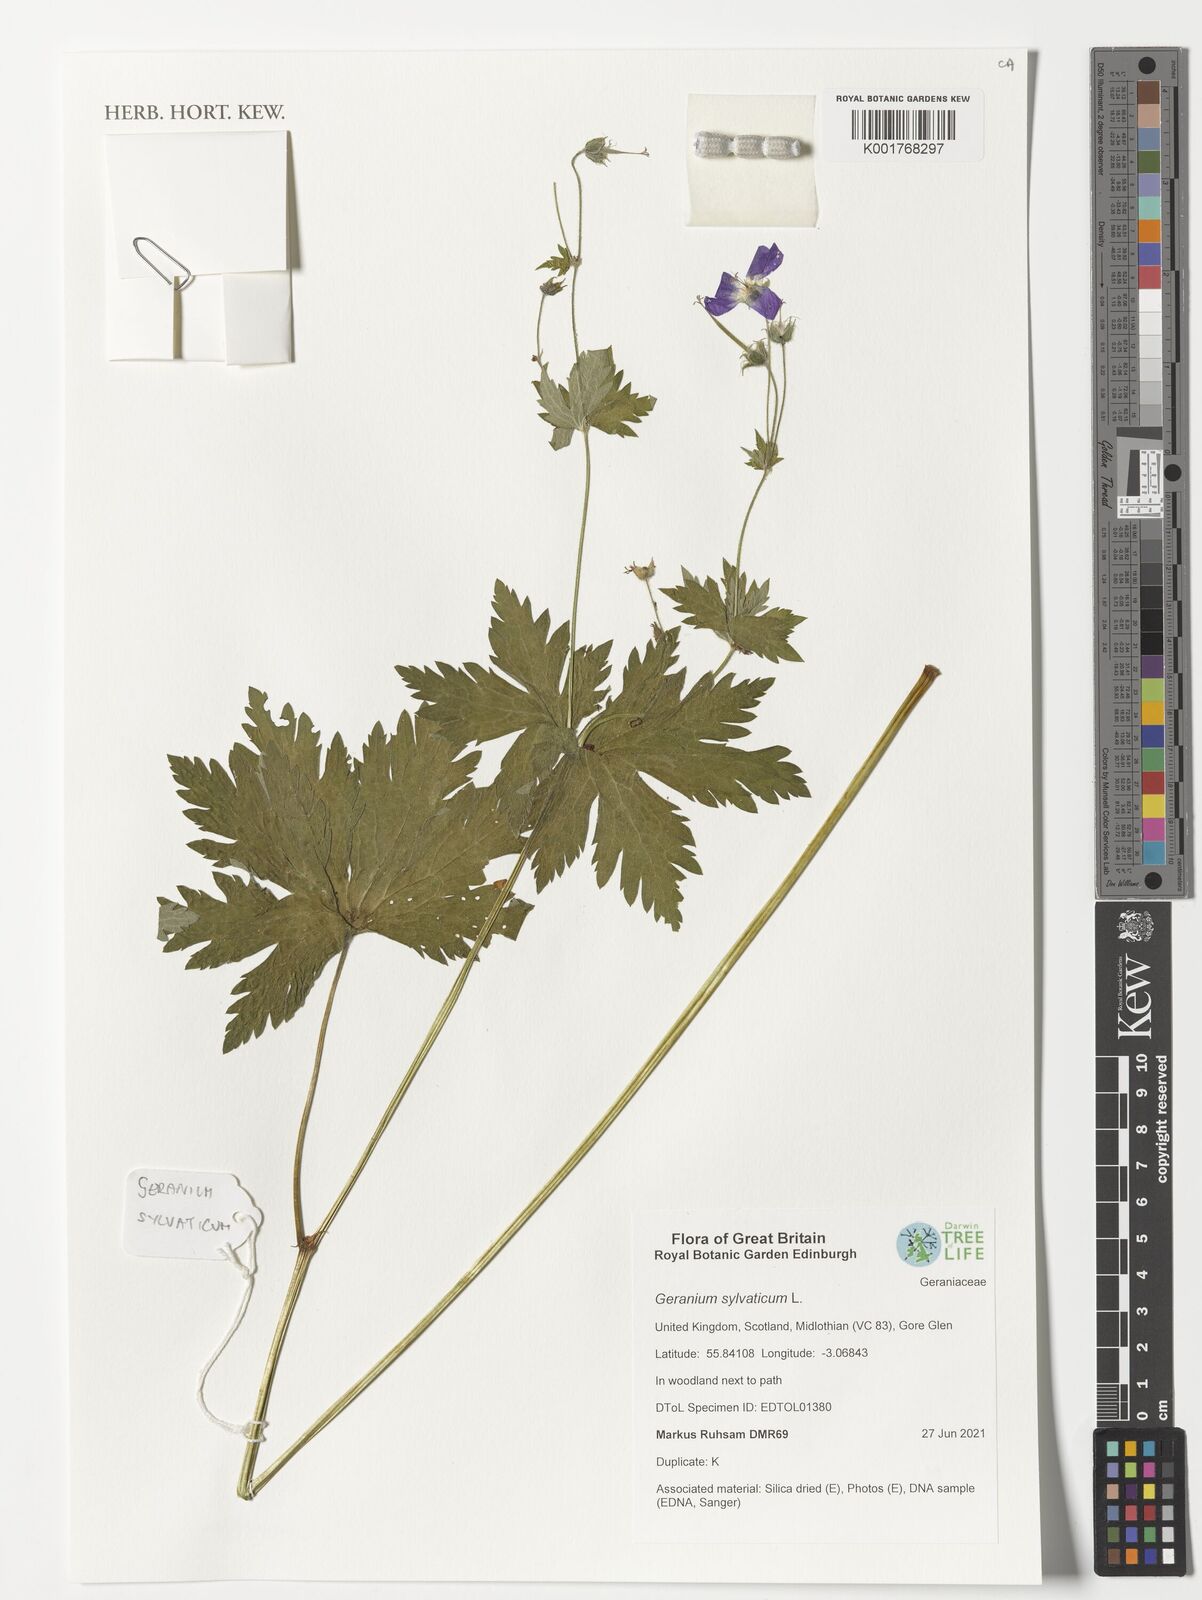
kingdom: Plantae
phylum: Tracheophyta
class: Magnoliopsida
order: Geraniales
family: Geraniaceae
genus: Geranium
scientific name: Geranium sylvaticum
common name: Wood crane's-bill
